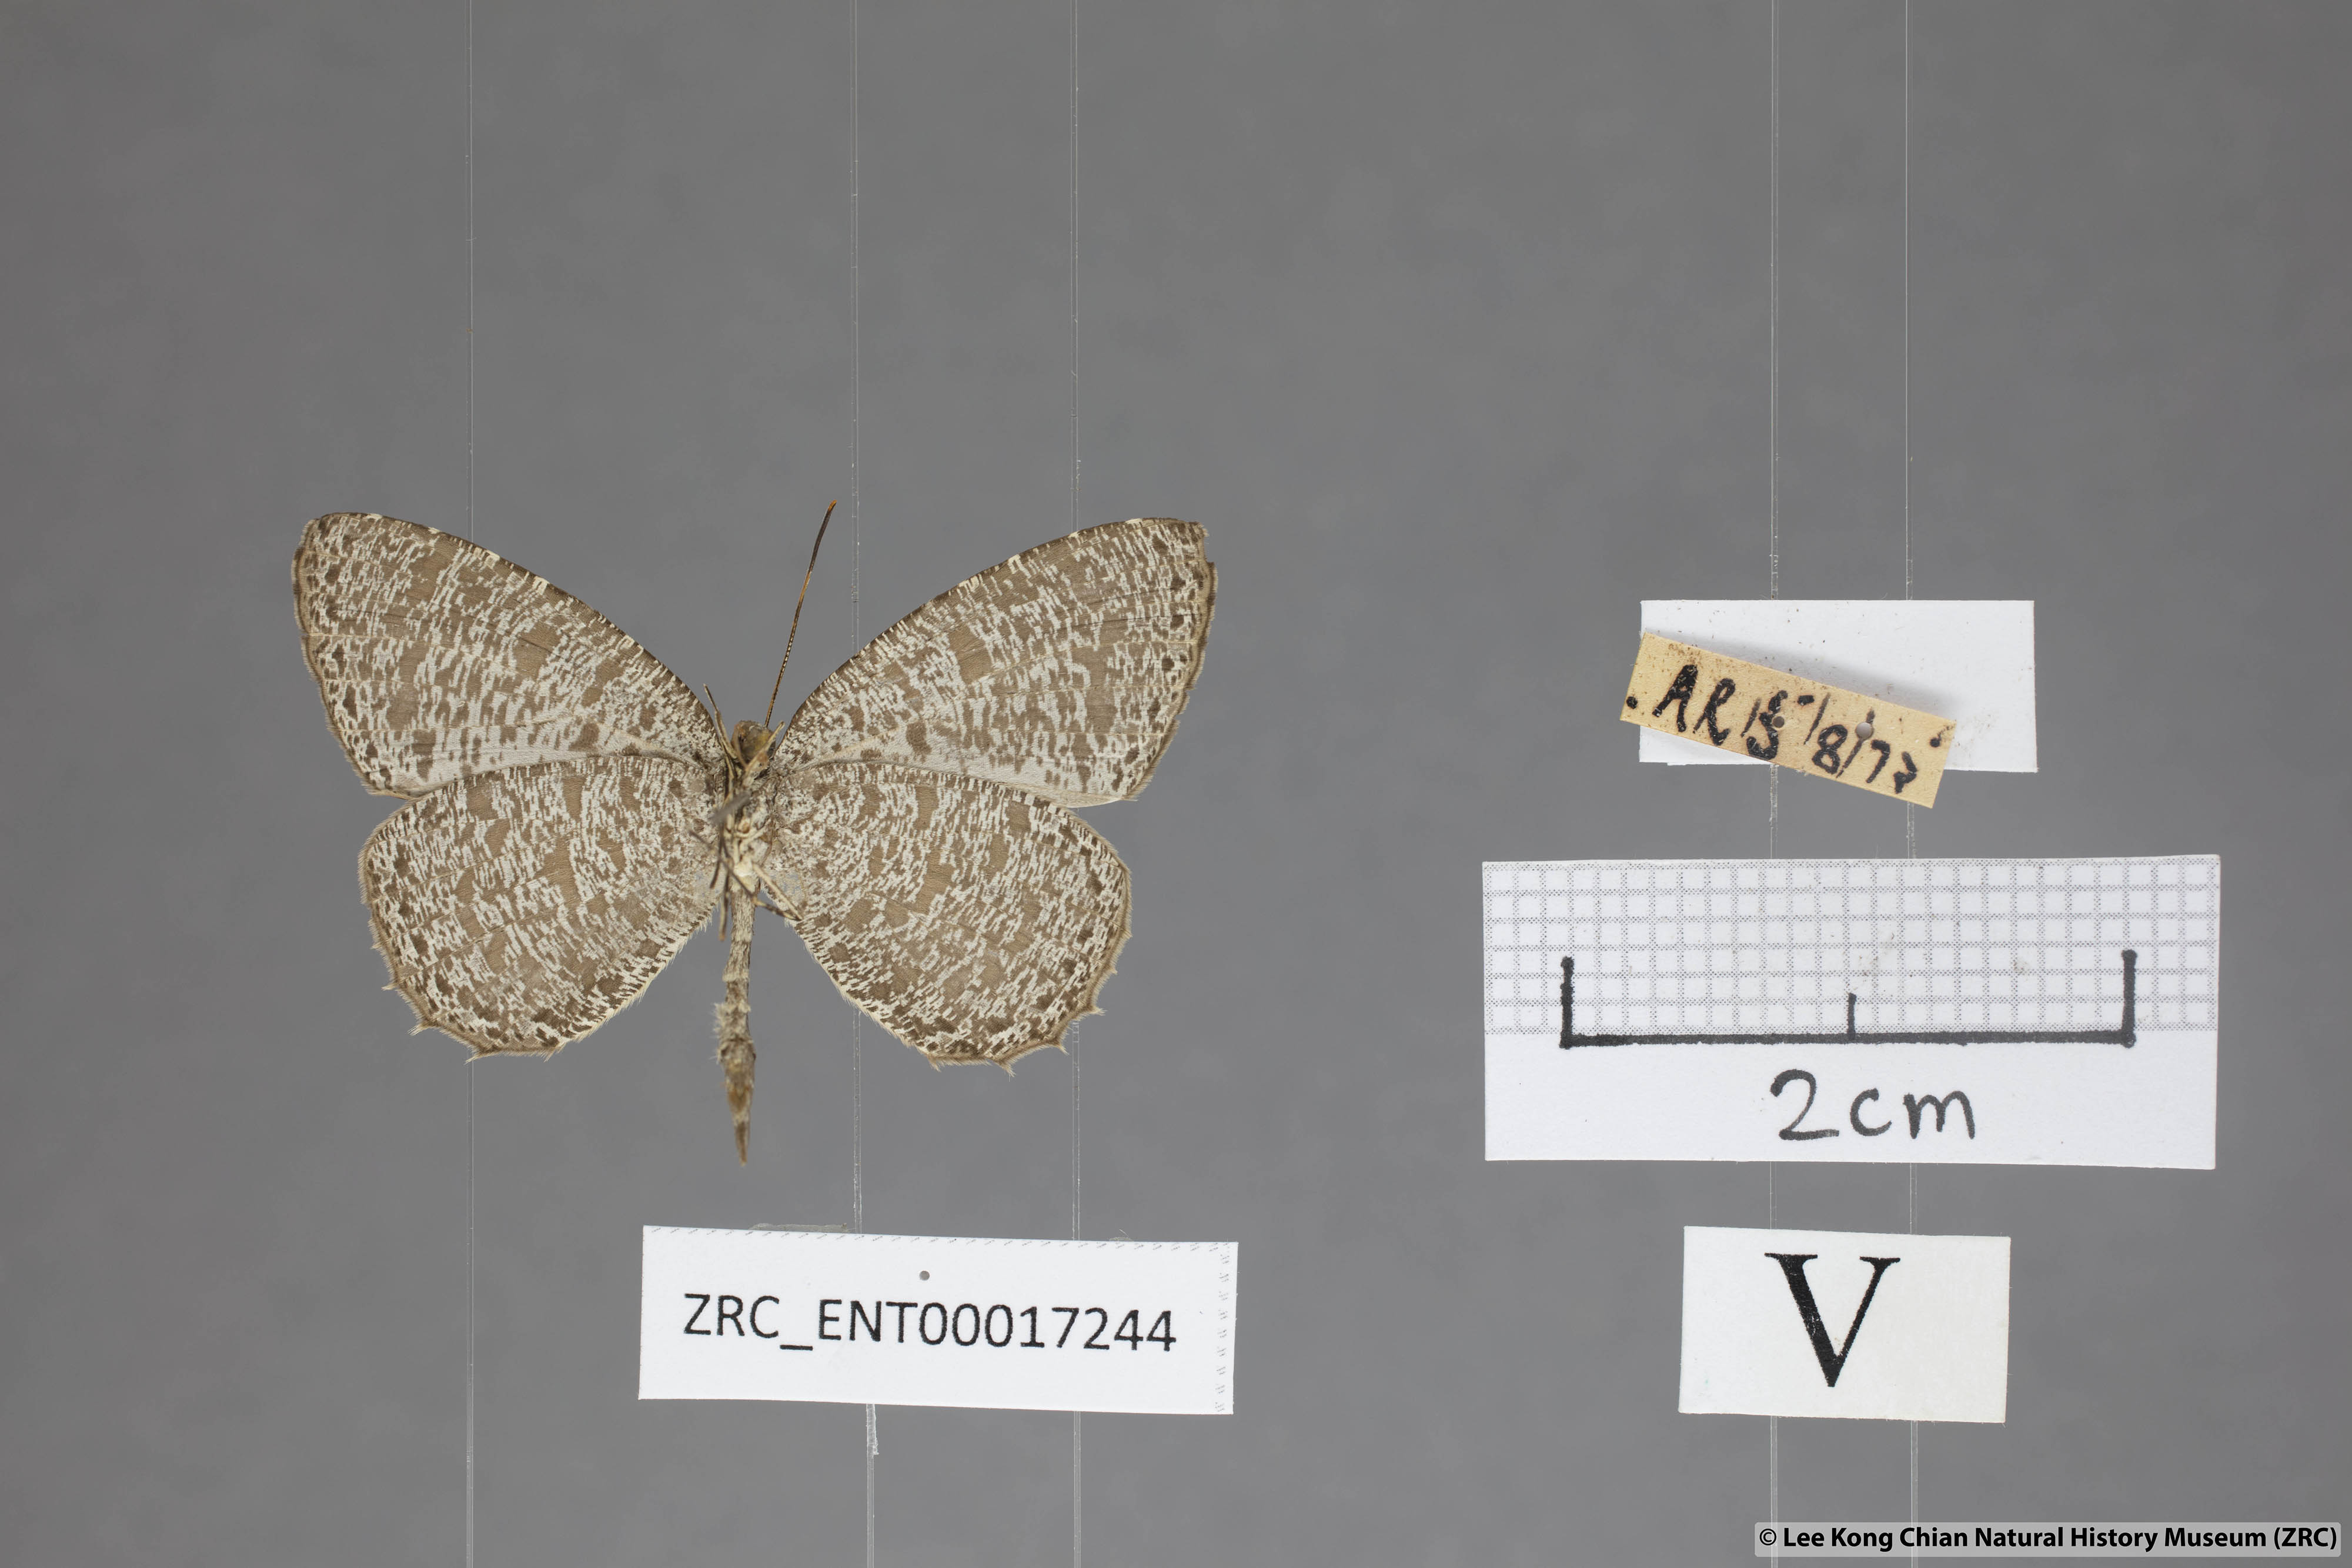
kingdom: Animalia
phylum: Arthropoda
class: Insecta
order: Lepidoptera
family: Lycaenidae
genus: Allotinus
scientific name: Allotinus horsfieldi
